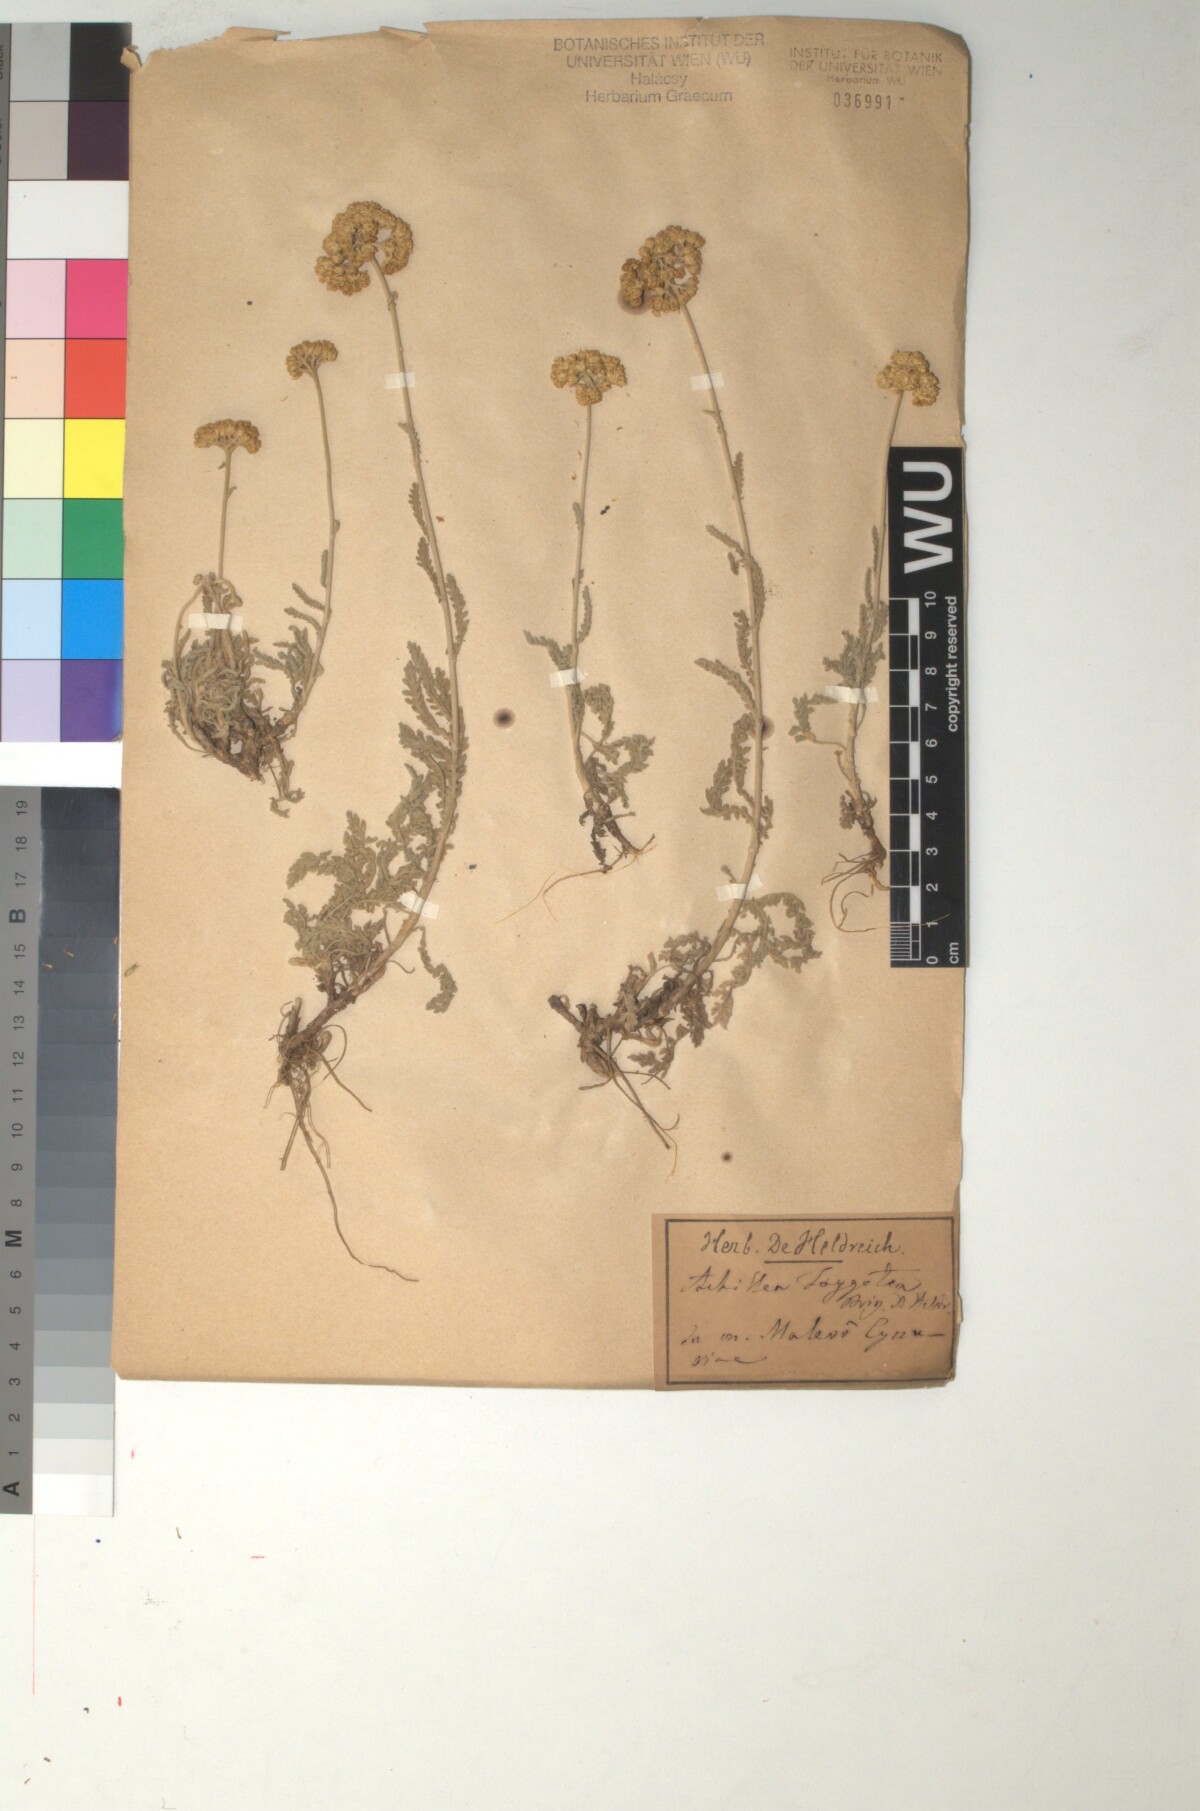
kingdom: Plantae
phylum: Tracheophyta
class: Magnoliopsida
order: Asterales
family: Asteraceae
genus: Achillea
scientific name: Achillea taygetea
